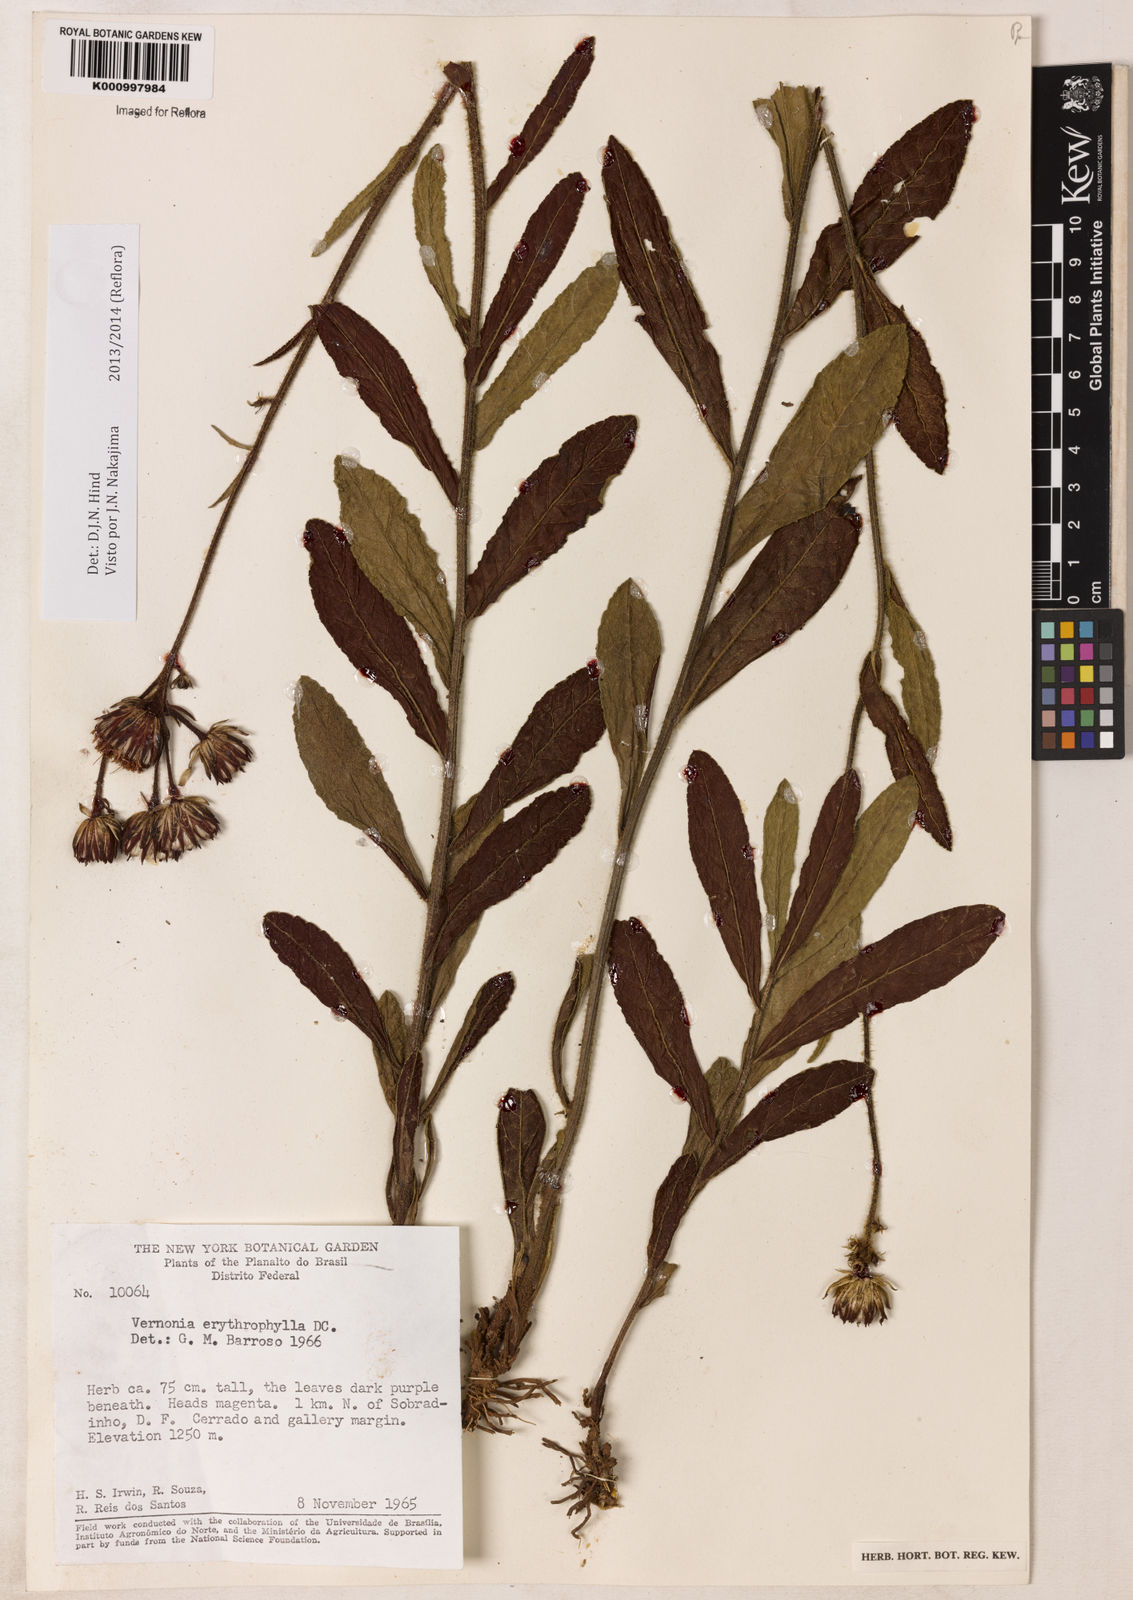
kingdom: Plantae
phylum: Tracheophyta
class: Magnoliopsida
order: Asterales
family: Asteraceae
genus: Lessingianthus
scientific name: Lessingianthus erythrophilus
